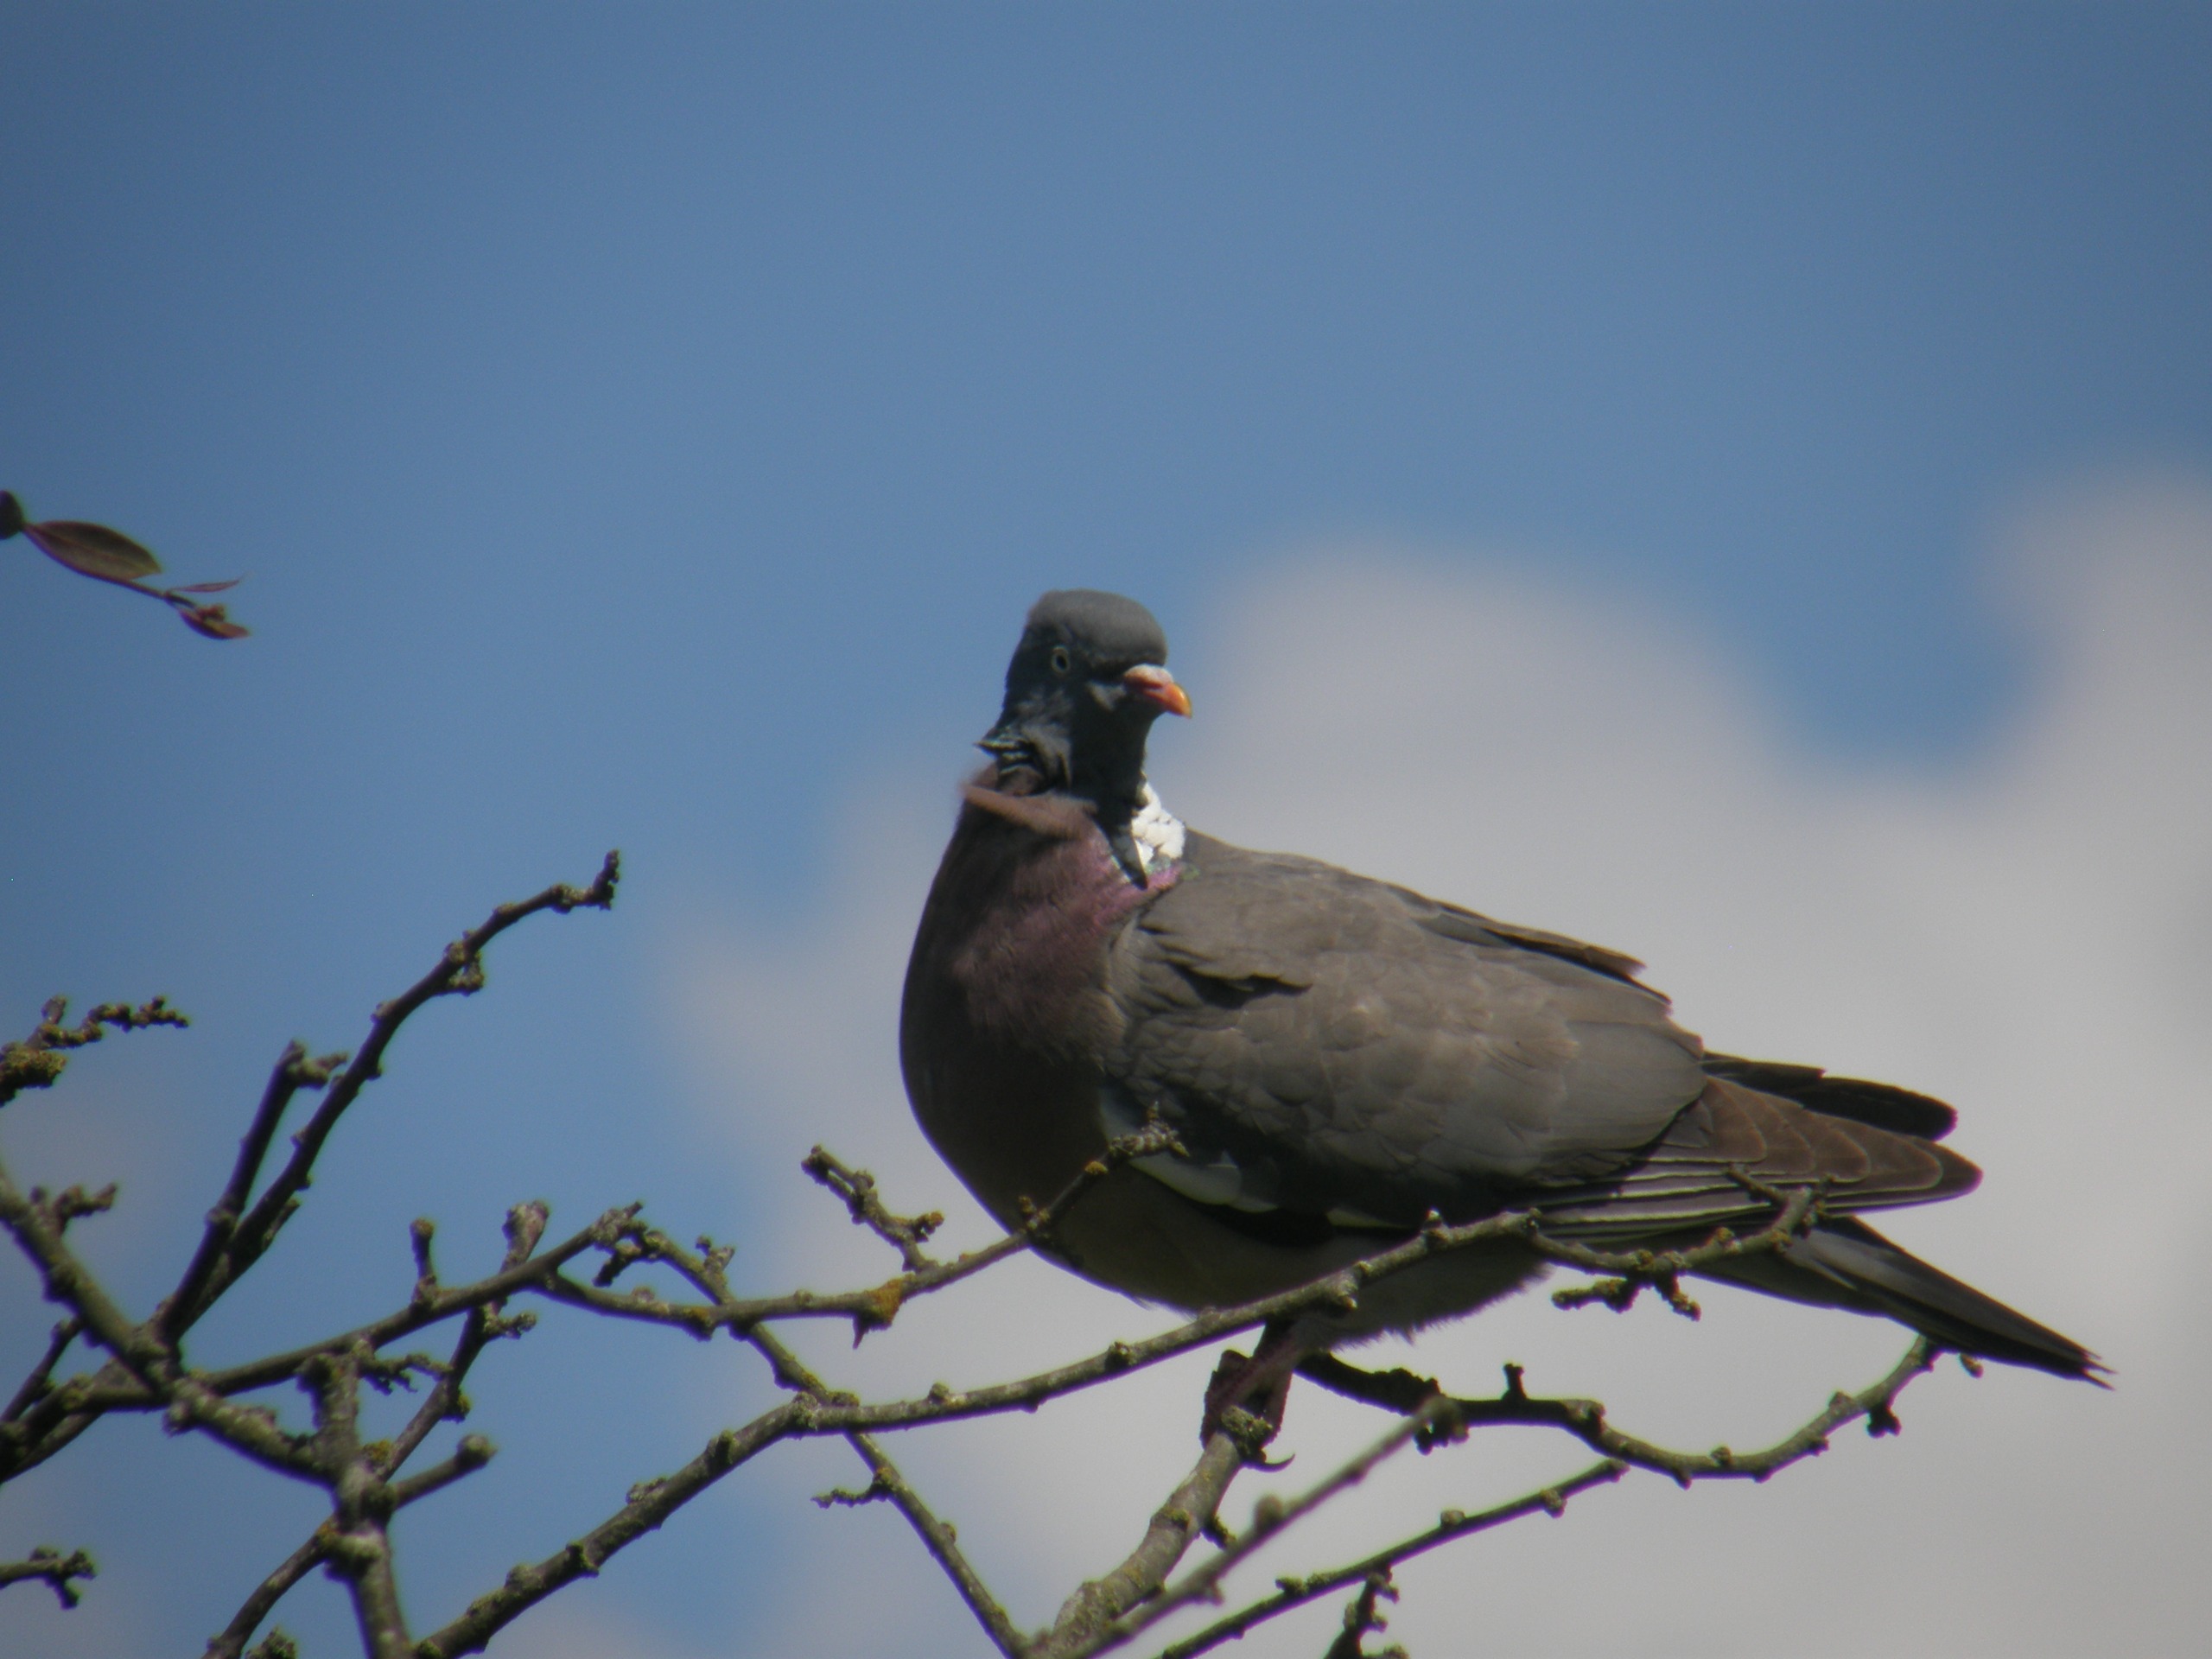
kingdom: Animalia
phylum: Chordata
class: Aves
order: Columbiformes
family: Columbidae
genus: Columba
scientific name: Columba palumbus
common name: Ringdue
